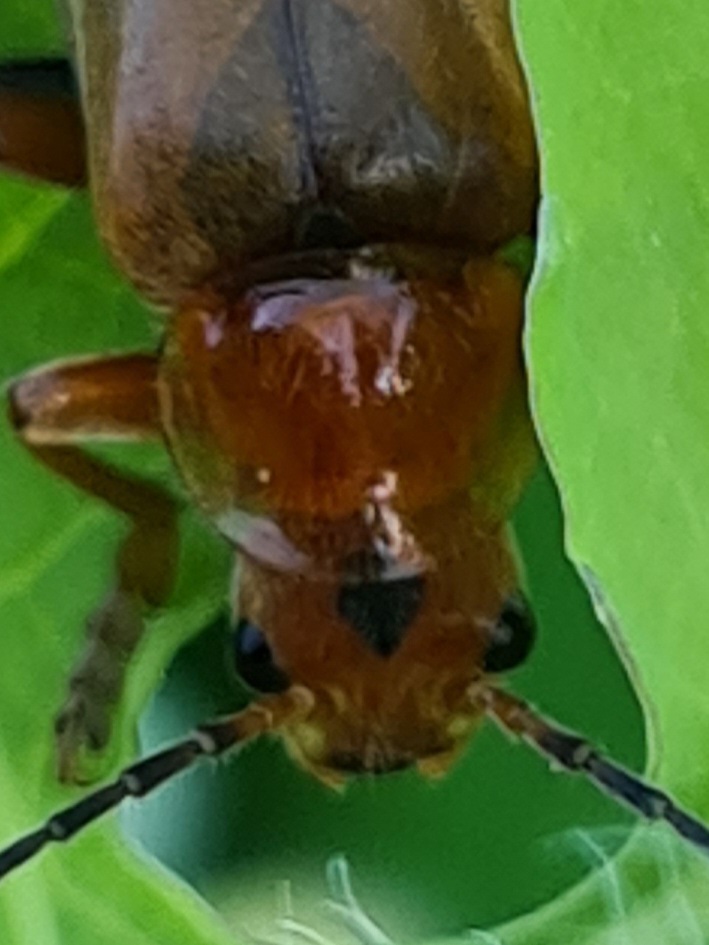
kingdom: Animalia
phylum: Arthropoda
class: Insecta
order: Coleoptera
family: Cantharidae
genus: Cantharis
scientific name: Cantharis livida
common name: Gul blødvinge
